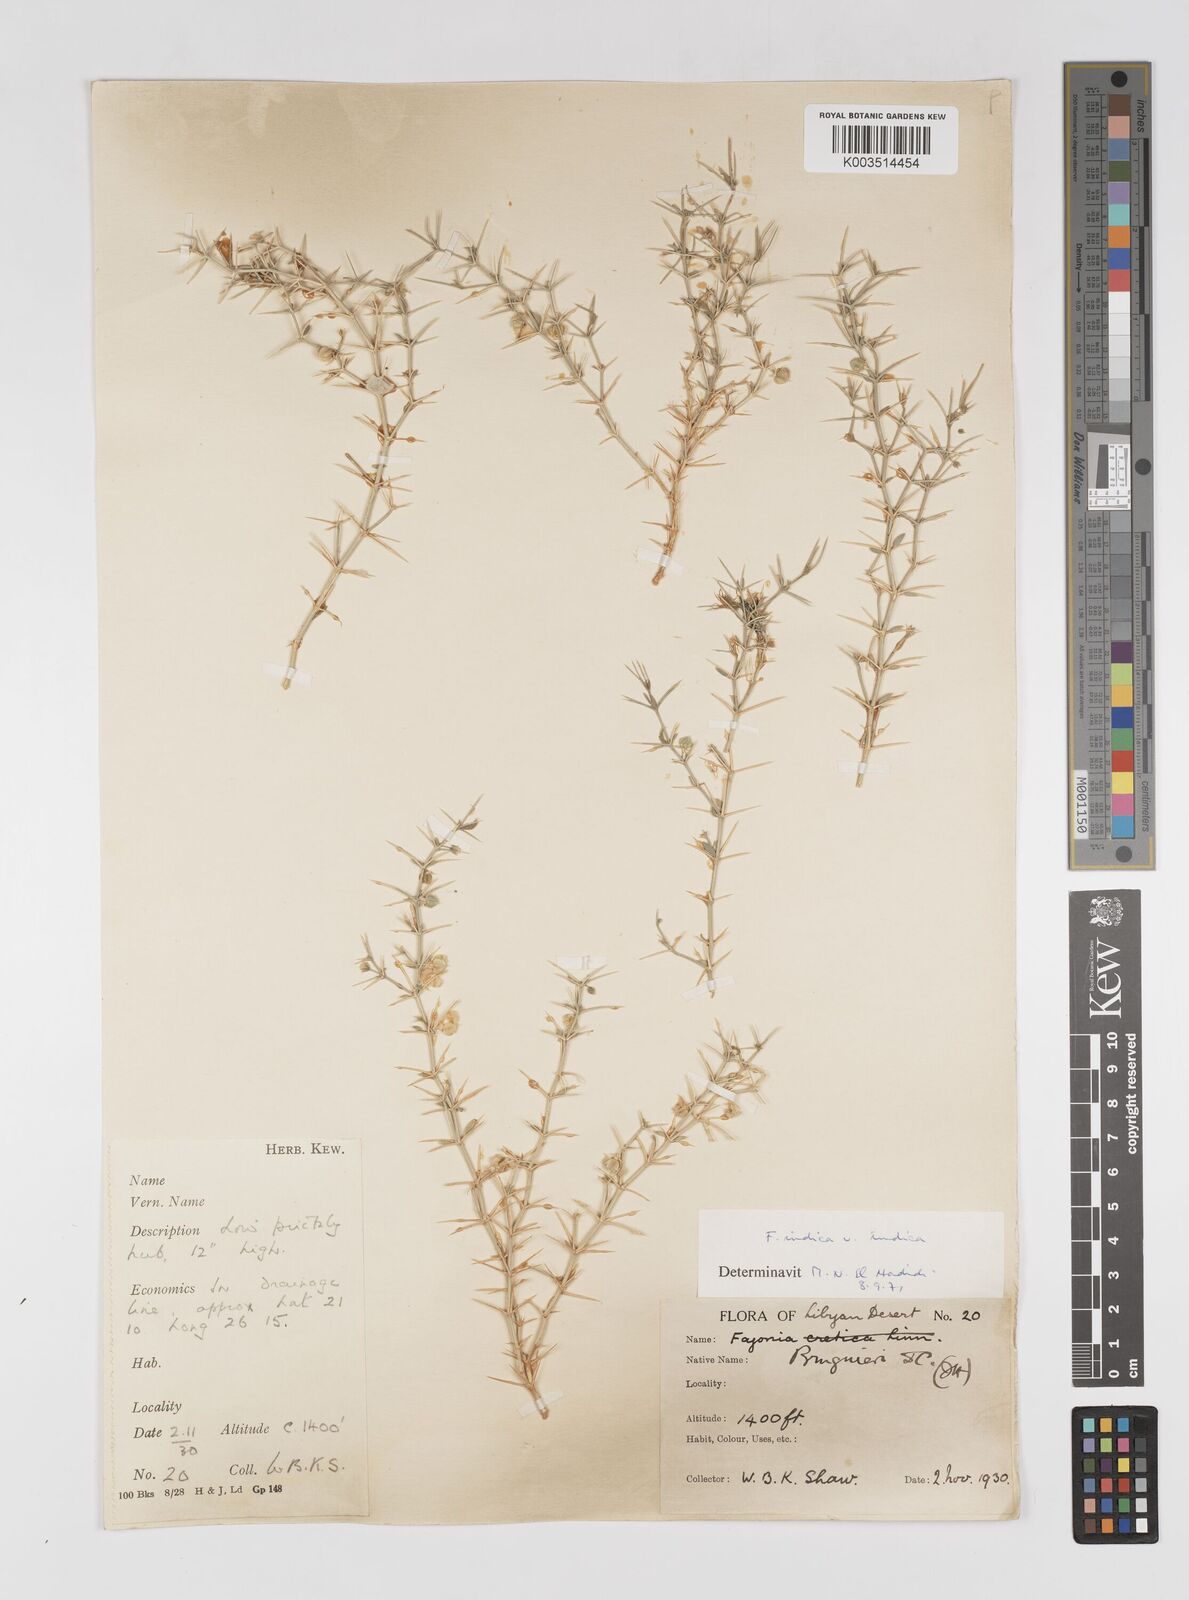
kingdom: Plantae
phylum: Tracheophyta
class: Magnoliopsida
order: Zygophyllales
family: Zygophyllaceae
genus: Fagonia
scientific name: Fagonia indica
